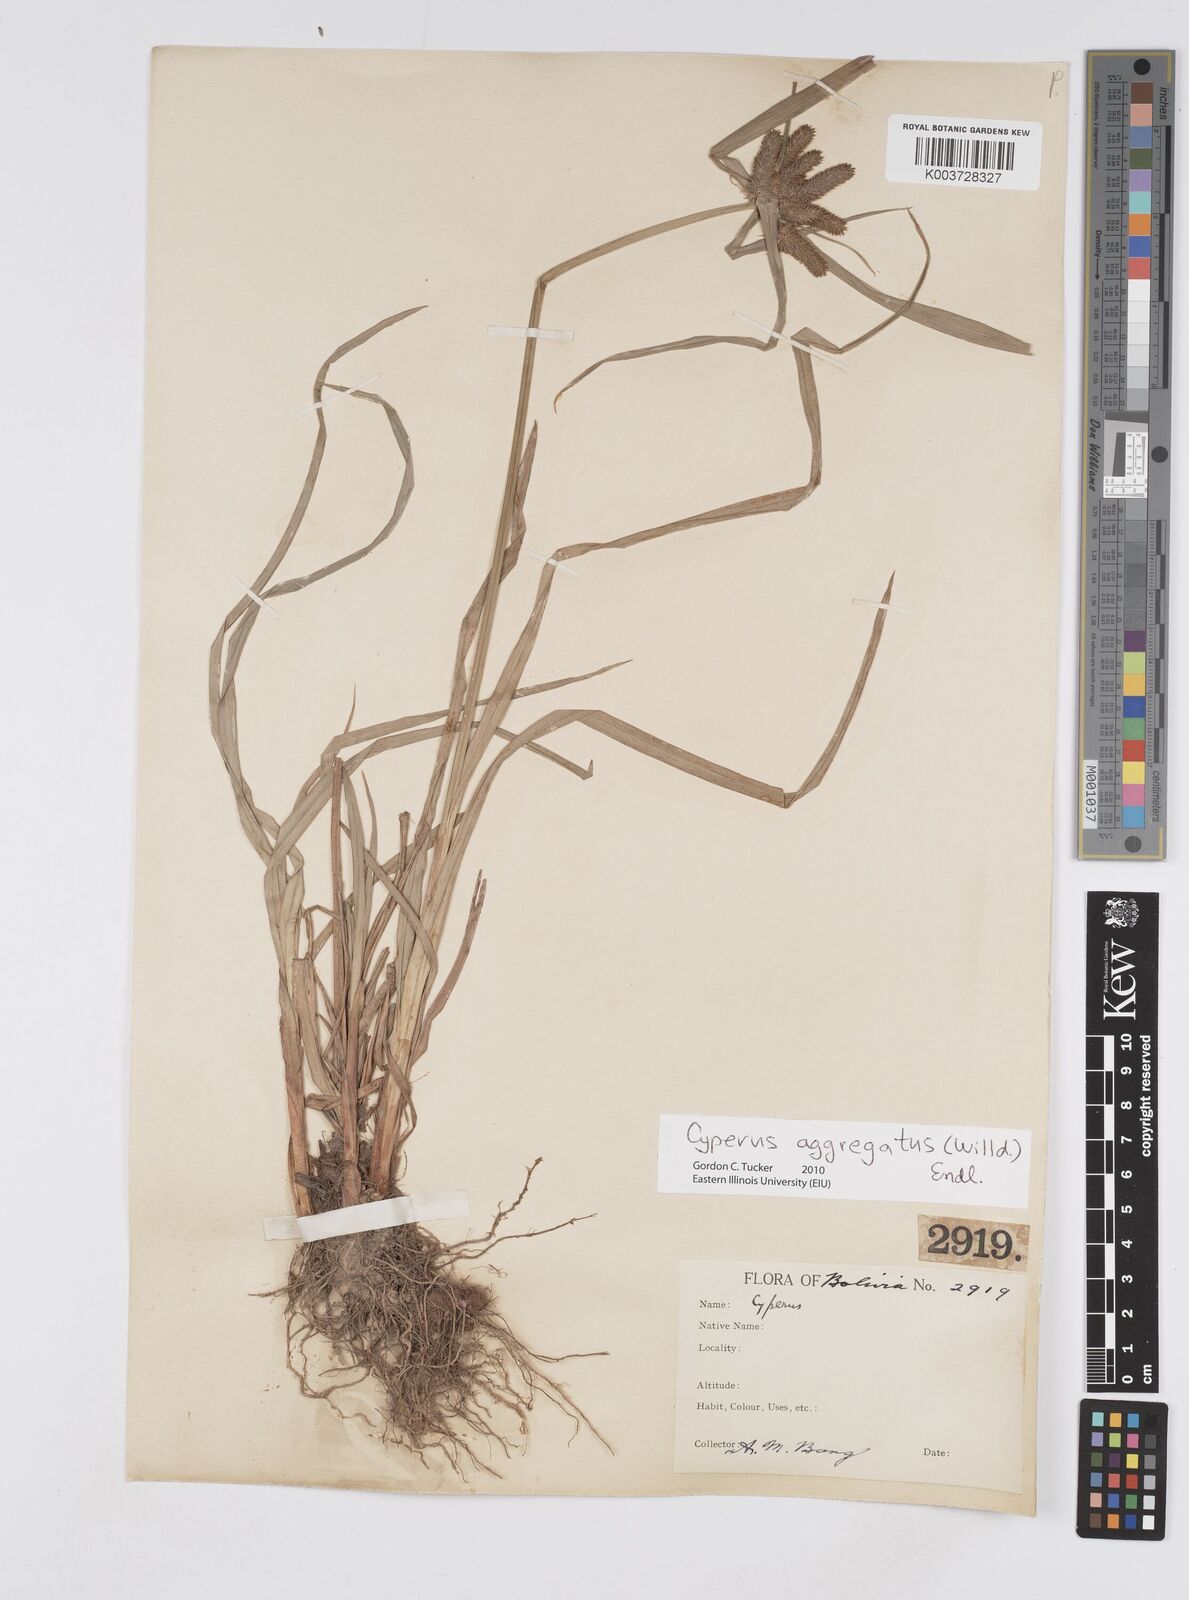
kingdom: Plantae
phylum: Tracheophyta
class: Liliopsida
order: Poales
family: Cyperaceae
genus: Cyperus
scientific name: Cyperus aggregatus
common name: Inflatedscale flatsedge
